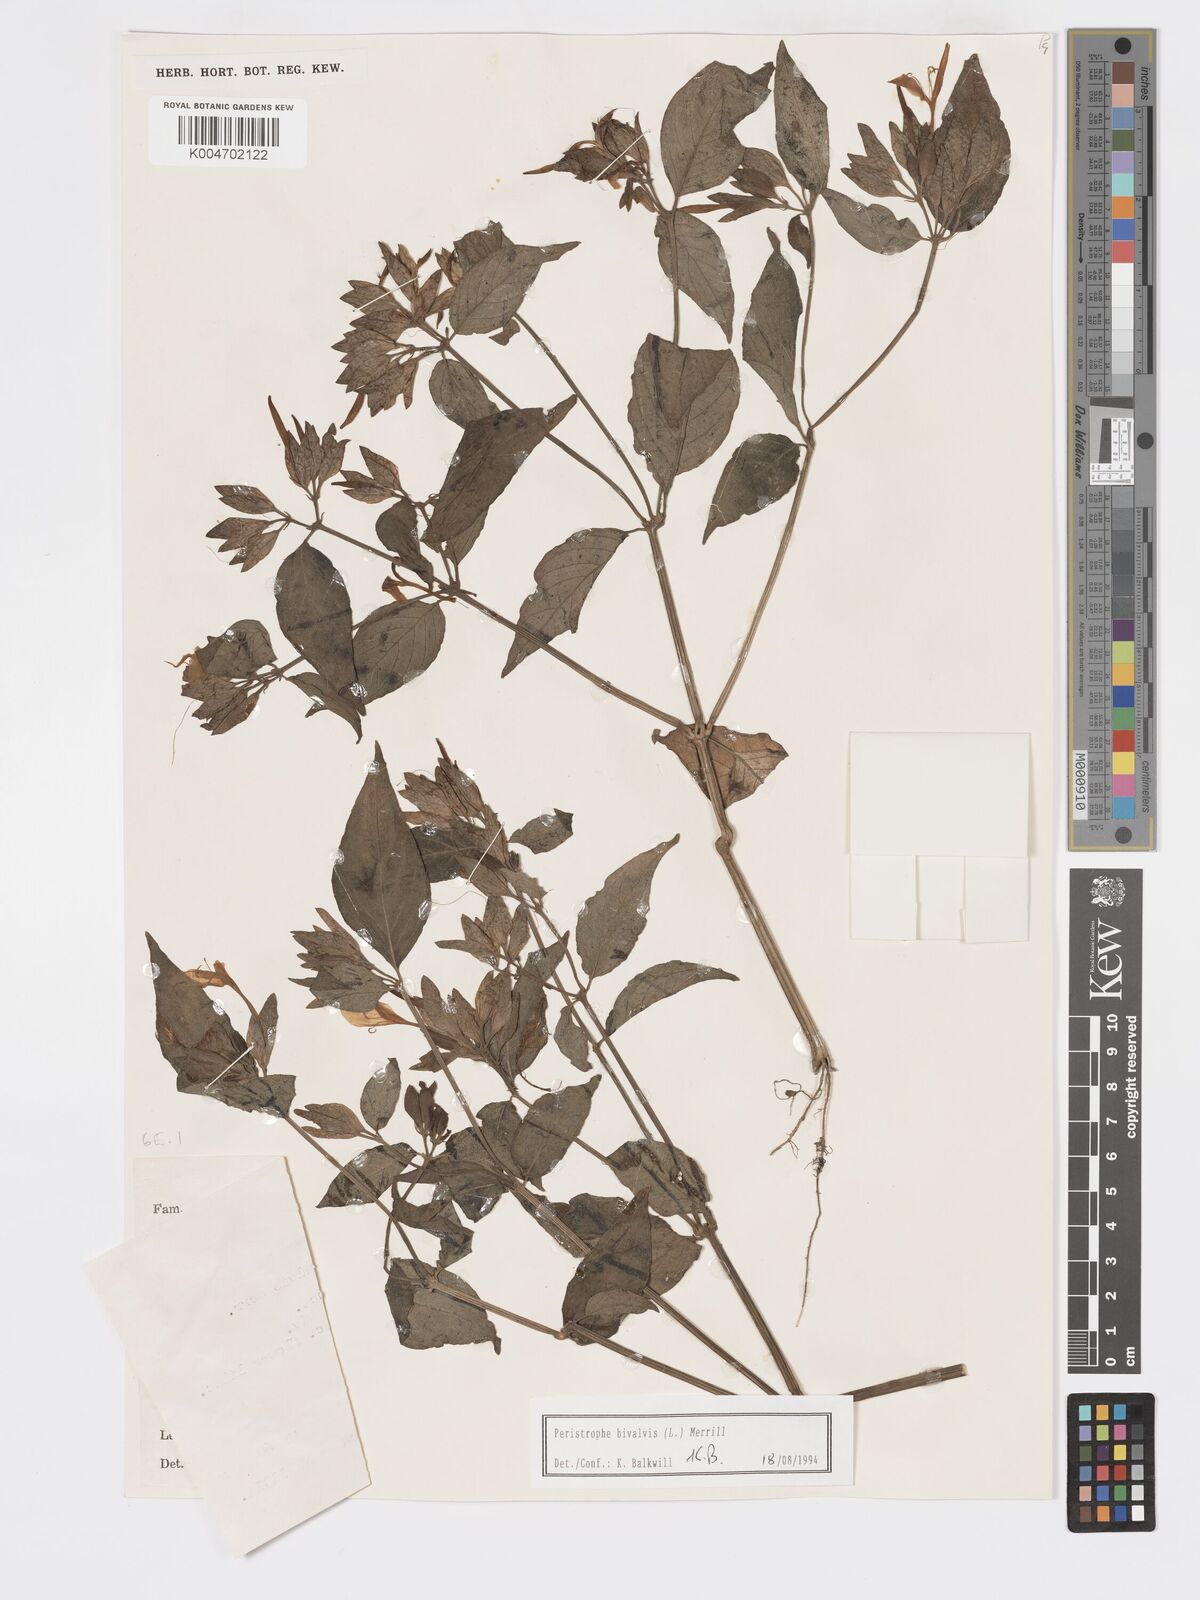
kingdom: Plantae
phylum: Tracheophyta
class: Magnoliopsida
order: Lamiales
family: Acanthaceae
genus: Dicliptera
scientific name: Dicliptera
